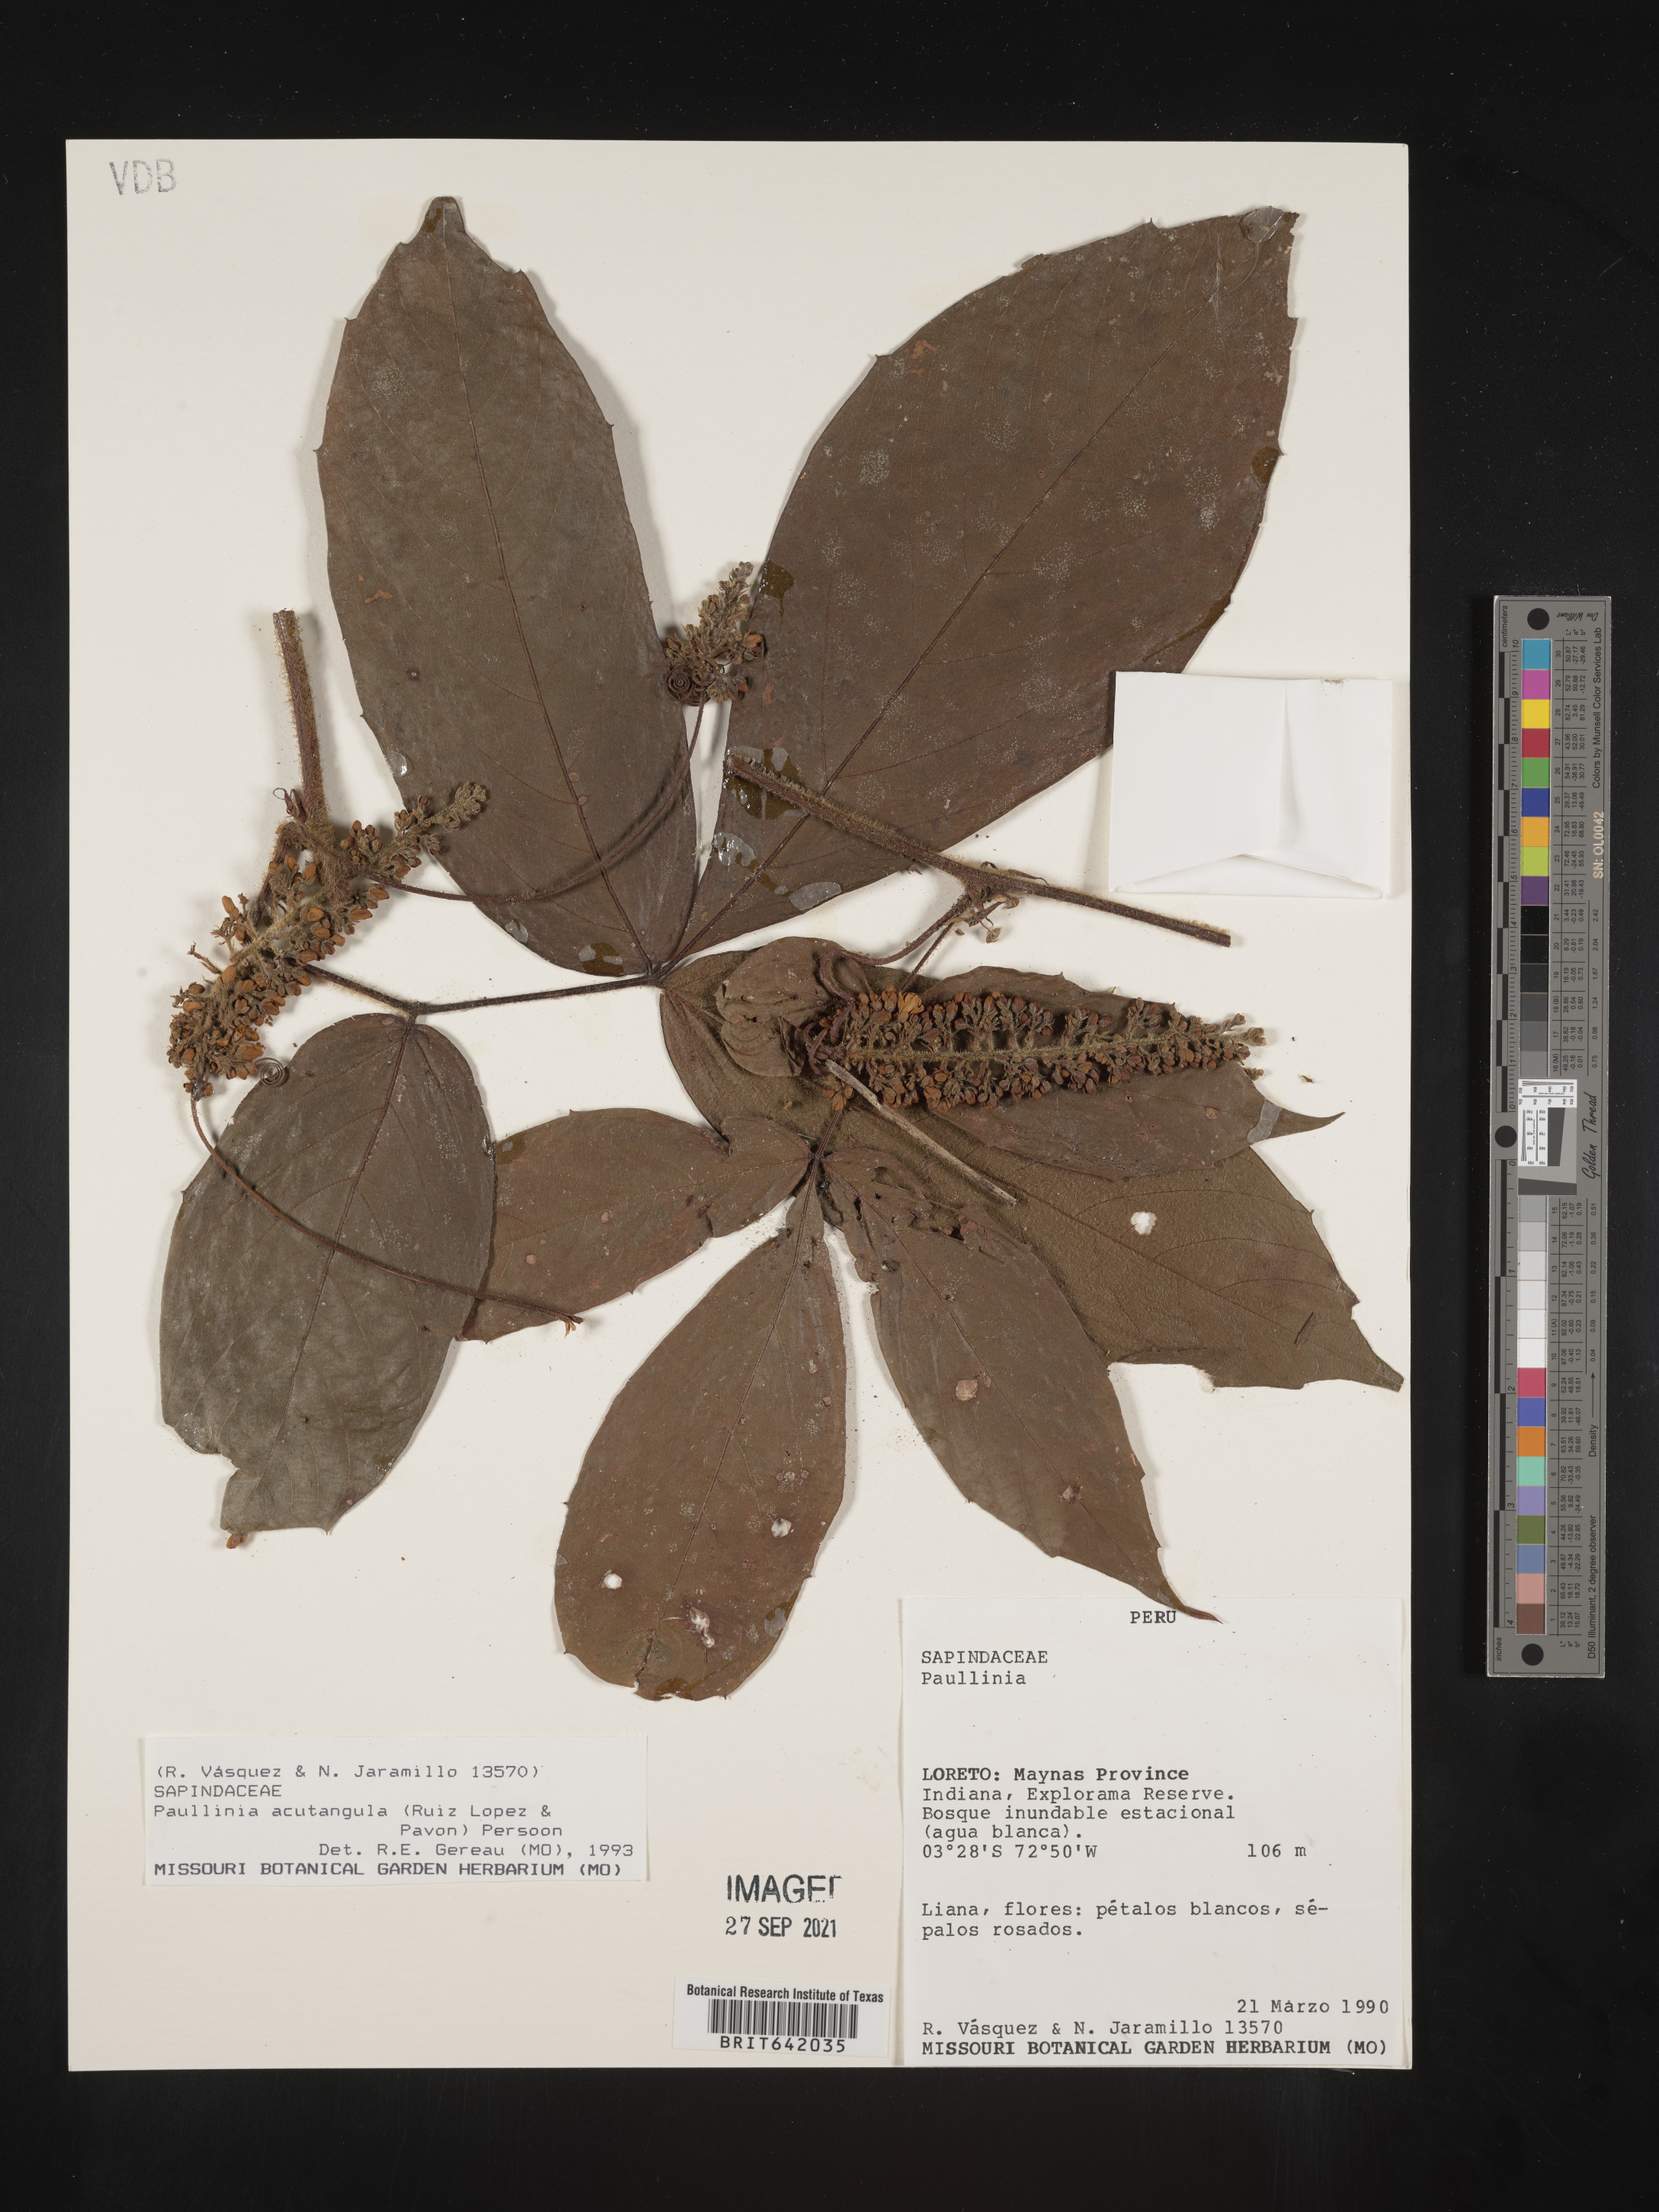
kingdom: Plantae
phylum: Tracheophyta
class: Magnoliopsida
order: Sapindales
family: Sapindaceae
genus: Paullinia
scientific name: Paullinia
